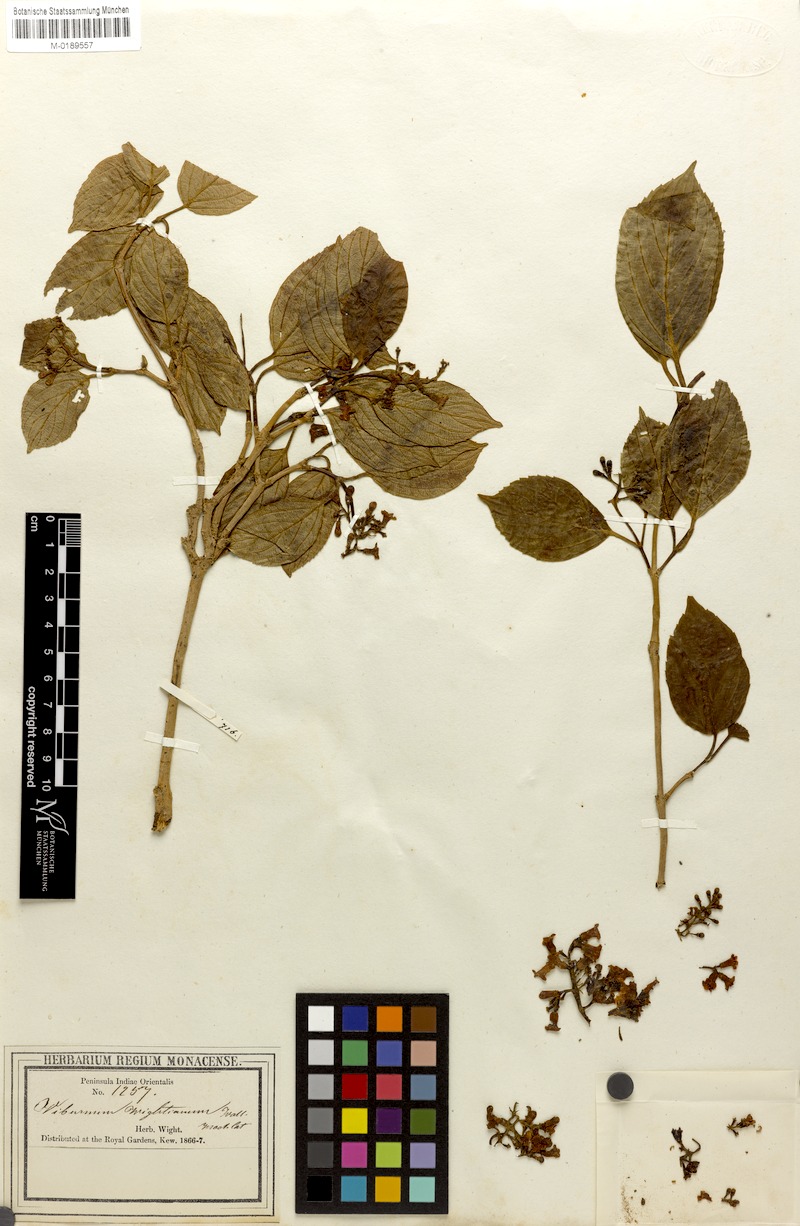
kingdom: Plantae
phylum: Tracheophyta
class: Magnoliopsida
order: Dipsacales
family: Viburnaceae
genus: Viburnum
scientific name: Viburnum erubescens
